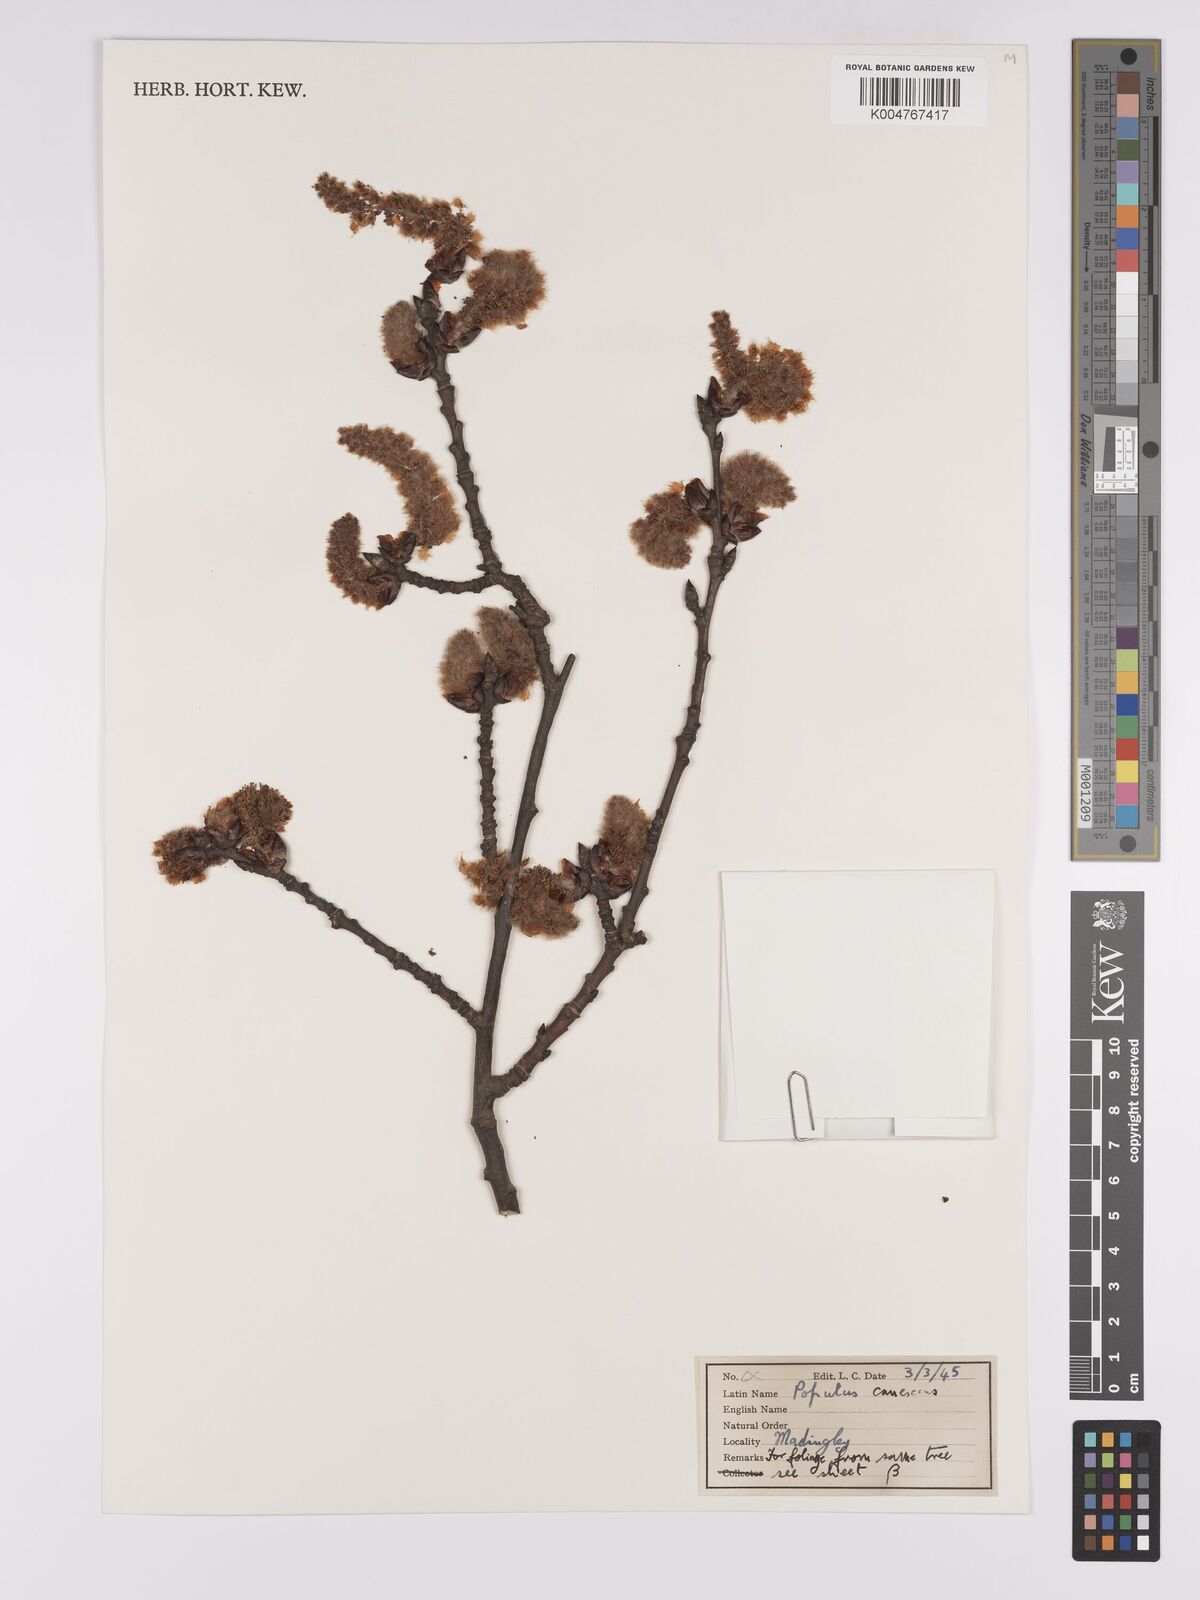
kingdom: Plantae
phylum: Tracheophyta
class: Magnoliopsida
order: Malpighiales
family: Salicaceae
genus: Populus
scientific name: Populus canescens
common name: Gray poplar
